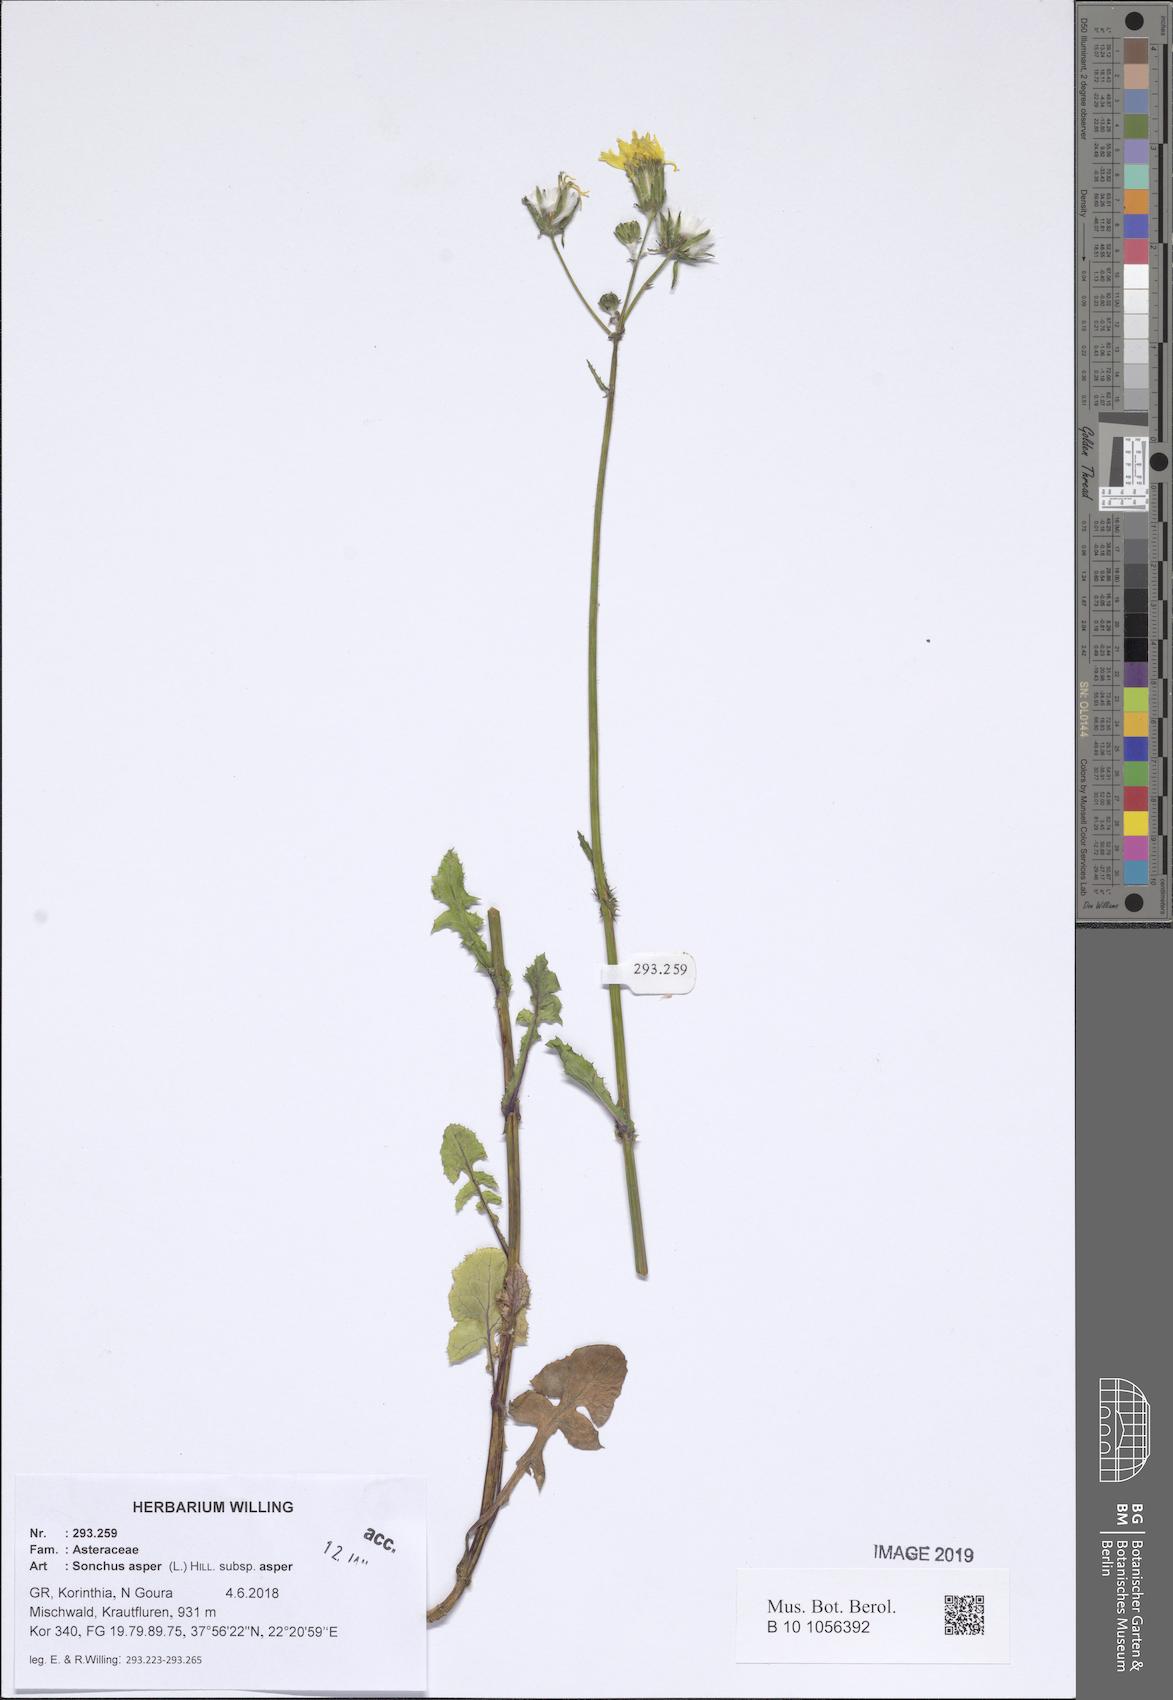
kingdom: Plantae
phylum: Tracheophyta
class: Magnoliopsida
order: Asterales
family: Asteraceae
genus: Sonchus
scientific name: Sonchus asper
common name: Prickly sow-thistle
